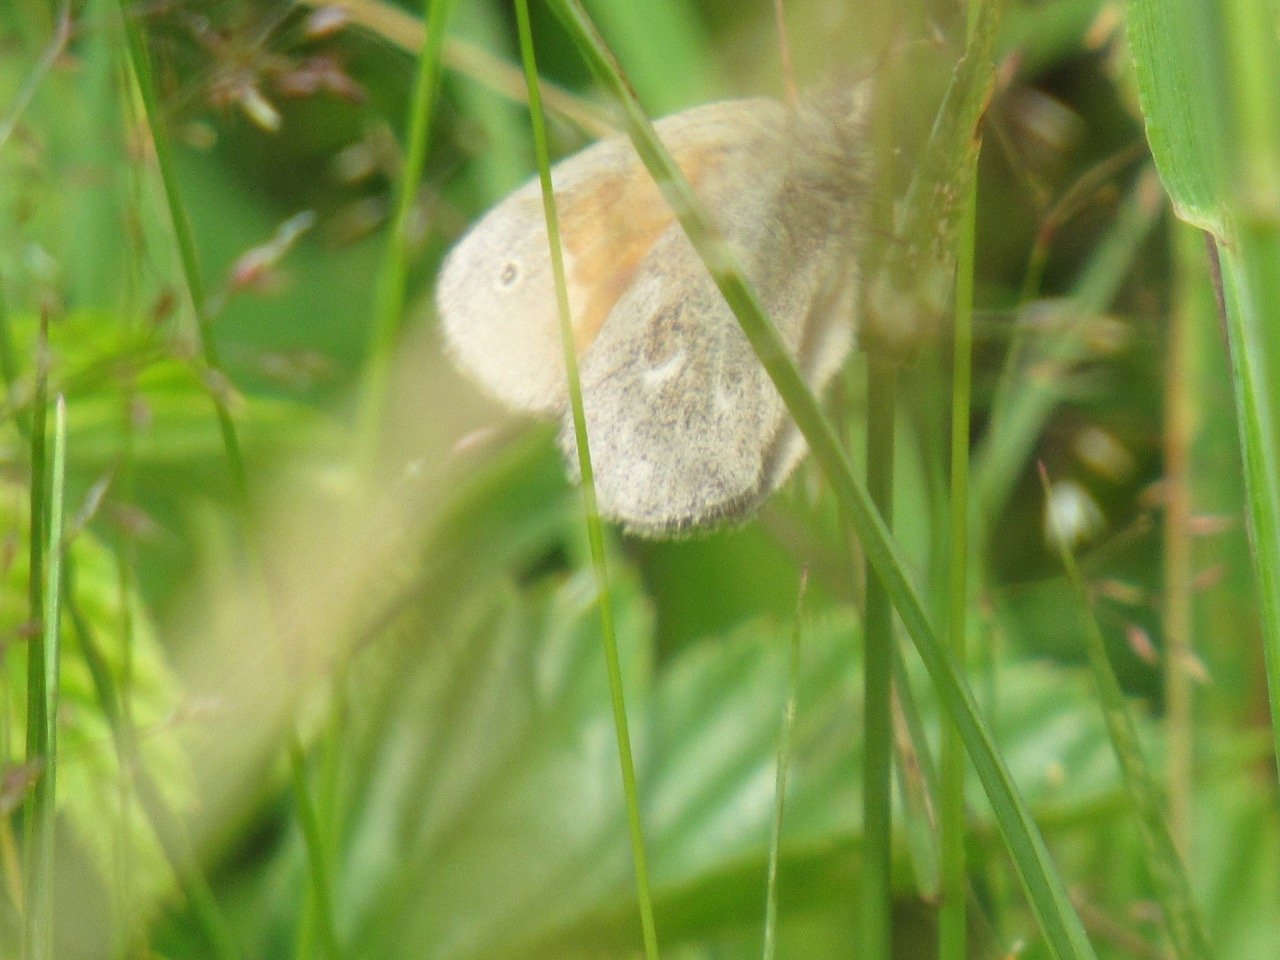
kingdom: Animalia
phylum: Arthropoda
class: Insecta
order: Lepidoptera
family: Nymphalidae
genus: Coenonympha
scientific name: Coenonympha tullia
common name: Large Heath
